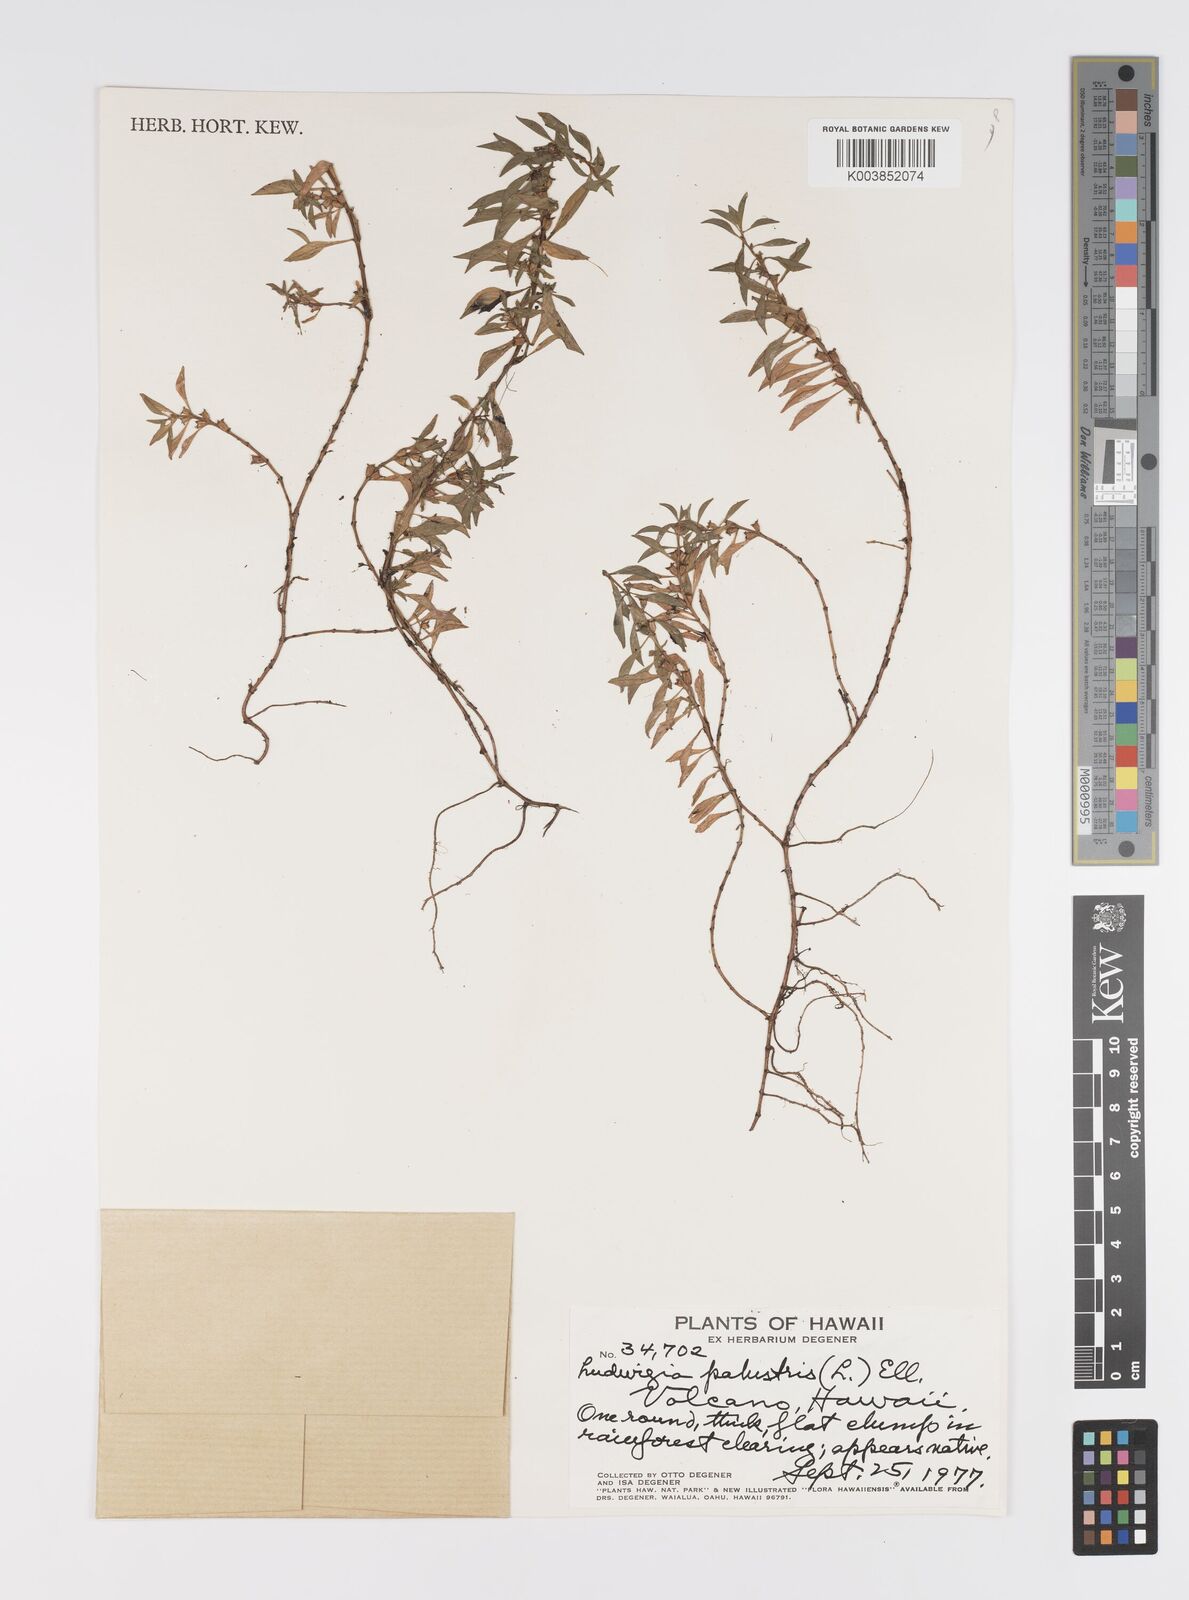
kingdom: Plantae
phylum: Tracheophyta
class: Magnoliopsida
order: Myrtales
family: Onagraceae
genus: Ludwigia
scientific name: Ludwigia palustris
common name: Hampshire-purslane
